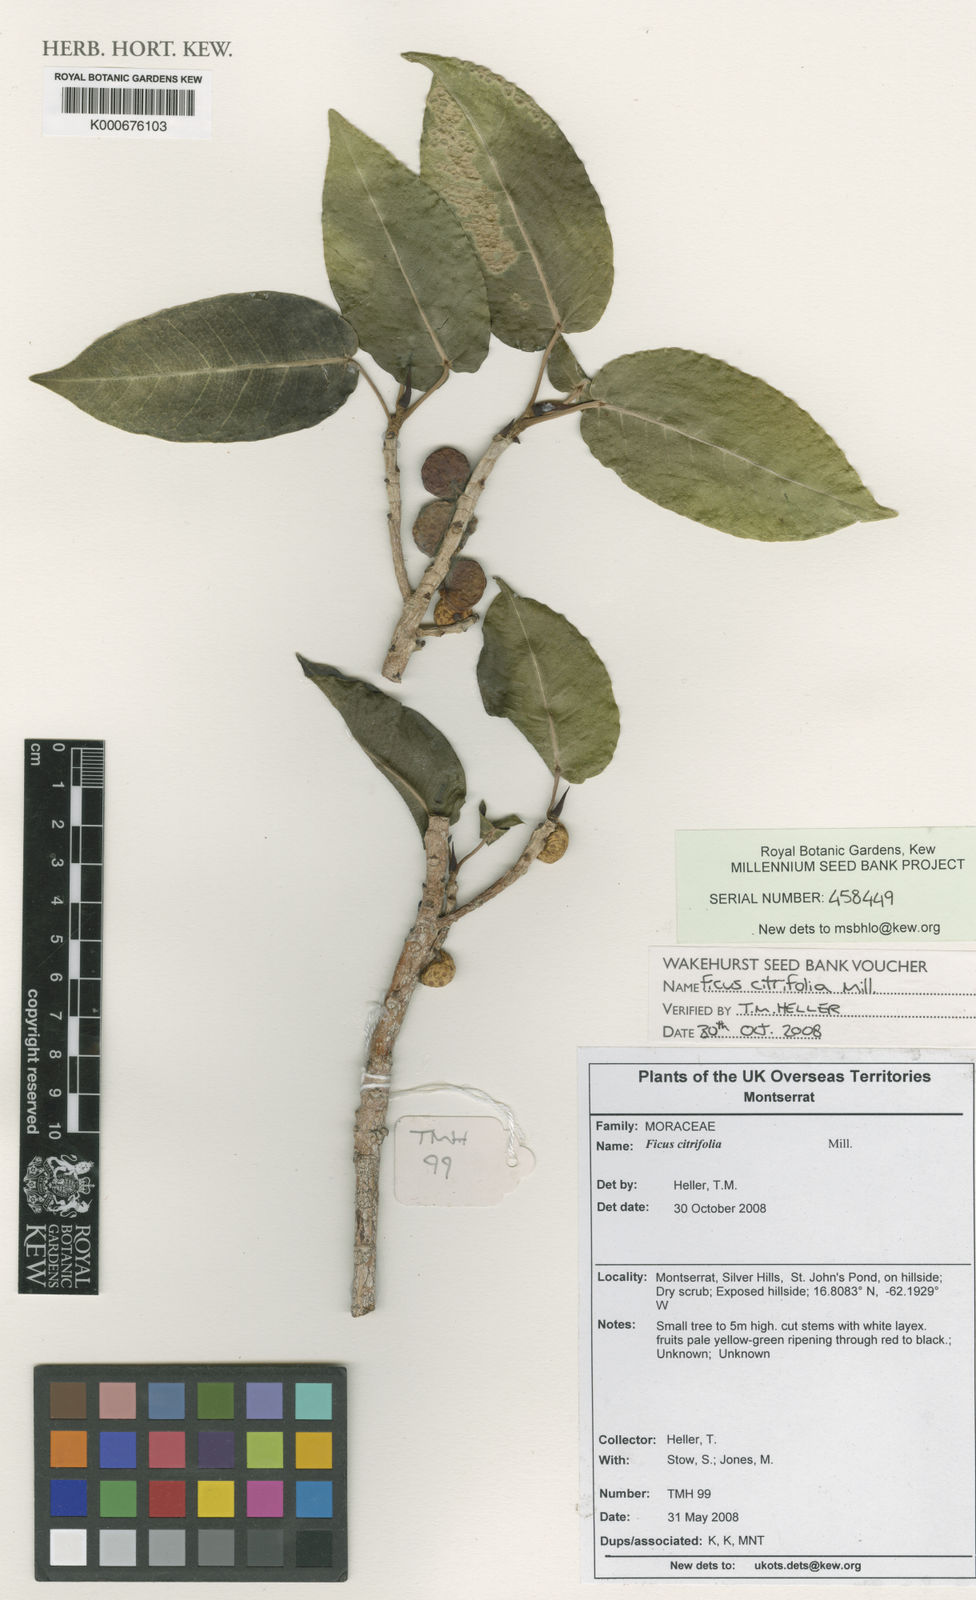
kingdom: Plantae
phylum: Tracheophyta
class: Magnoliopsida
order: Rosales
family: Moraceae
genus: Ficus
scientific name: Ficus citrifolia
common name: Strangler fig
